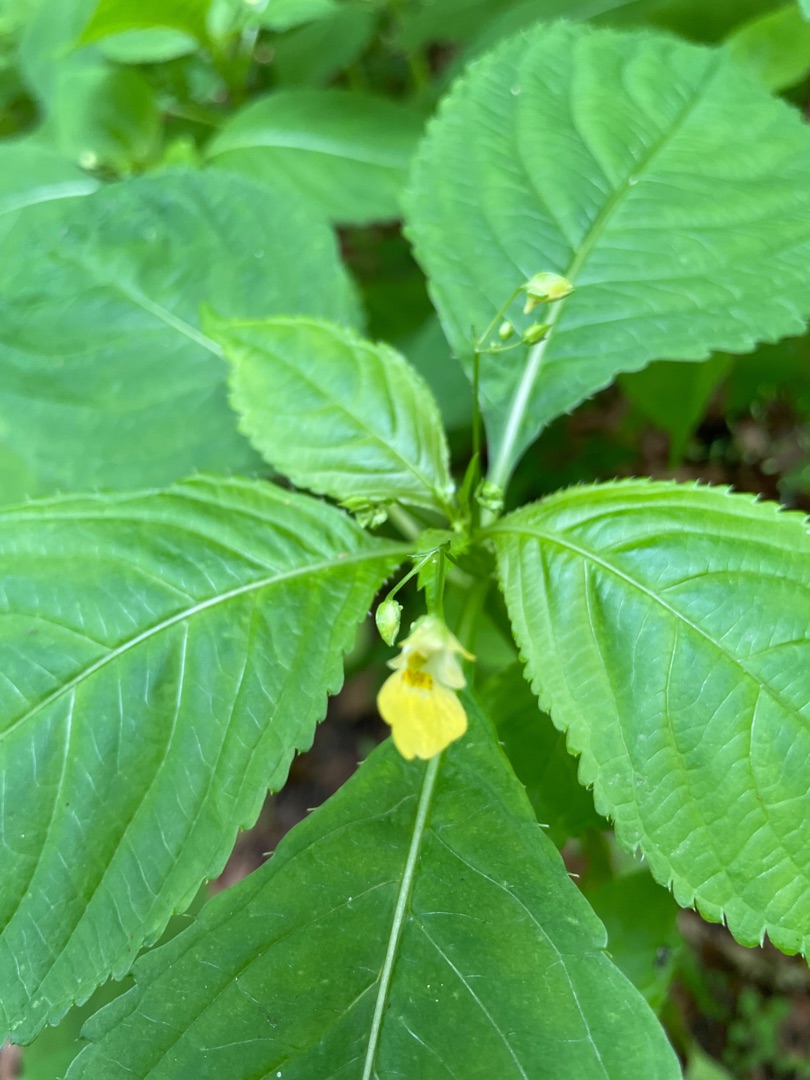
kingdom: Plantae
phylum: Tracheophyta
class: Magnoliopsida
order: Ericales
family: Balsaminaceae
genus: Impatiens
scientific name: Impatiens parviflora
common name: Småblomstret balsamin
